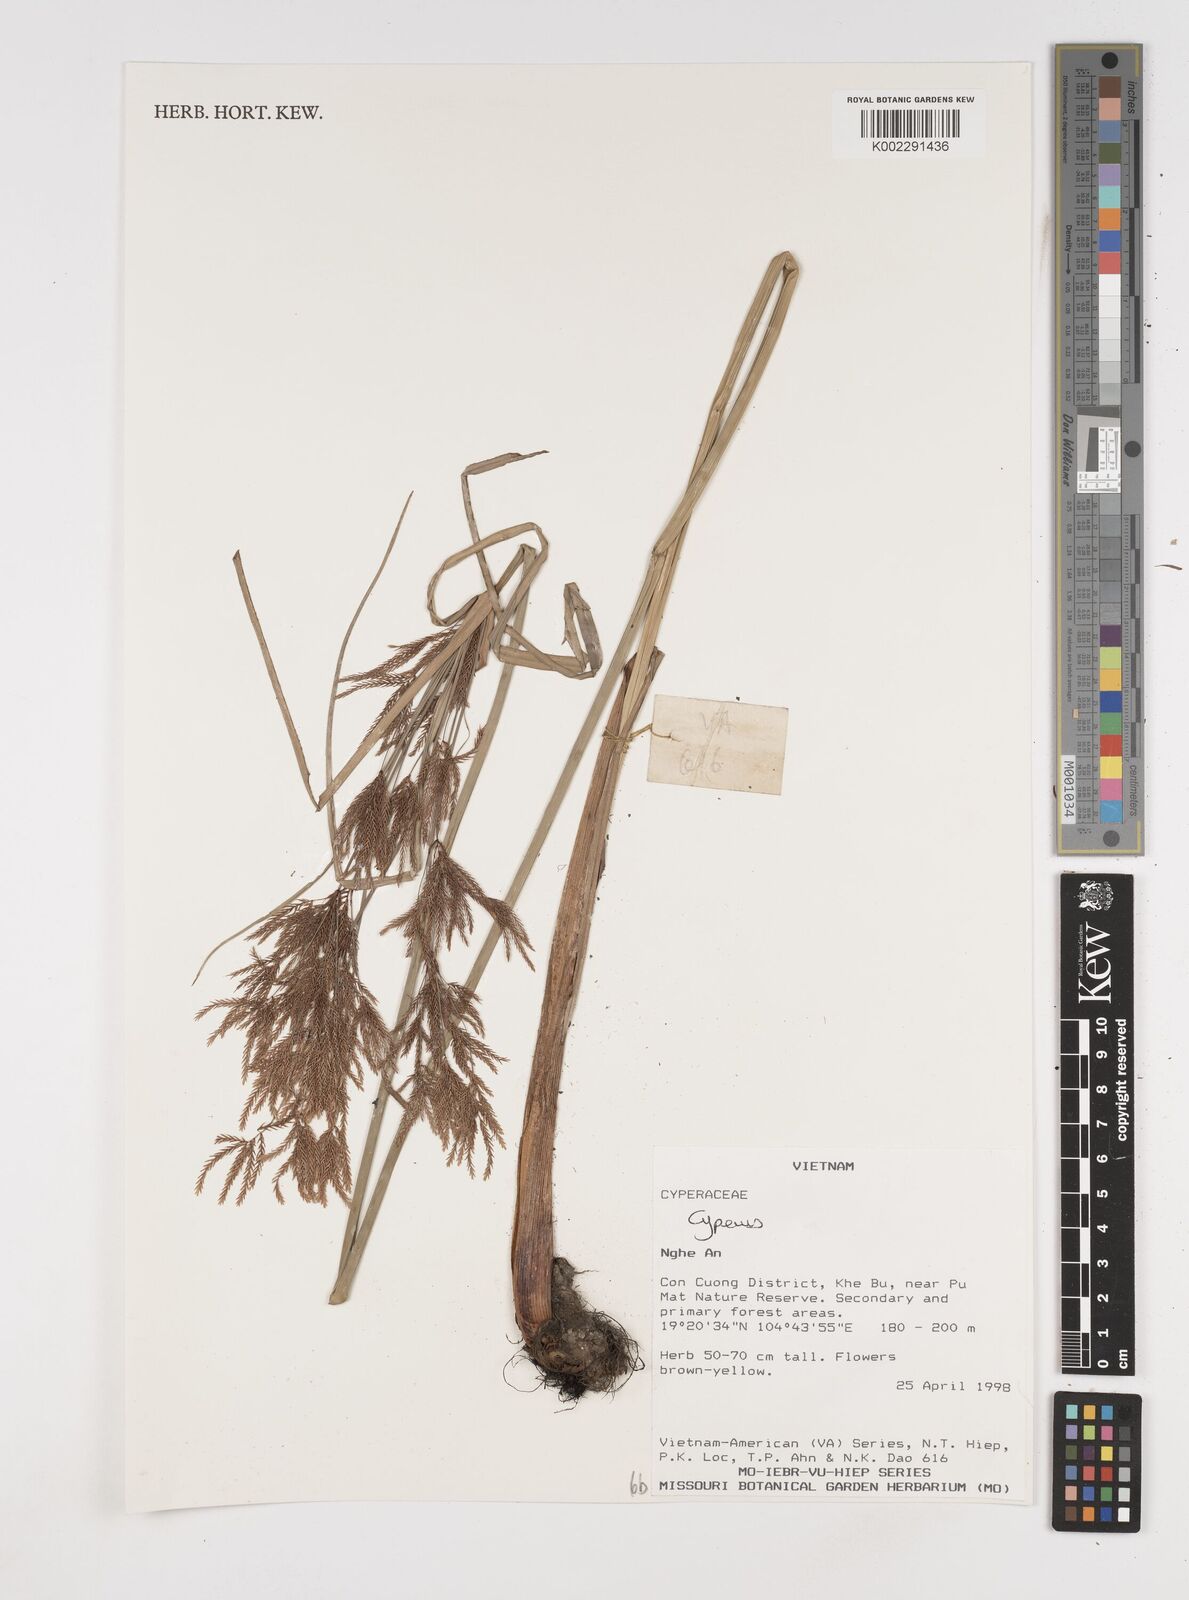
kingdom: Plantae
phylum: Tracheophyta
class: Liliopsida
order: Poales
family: Cyperaceae
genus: Cyperus
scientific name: Cyperus
